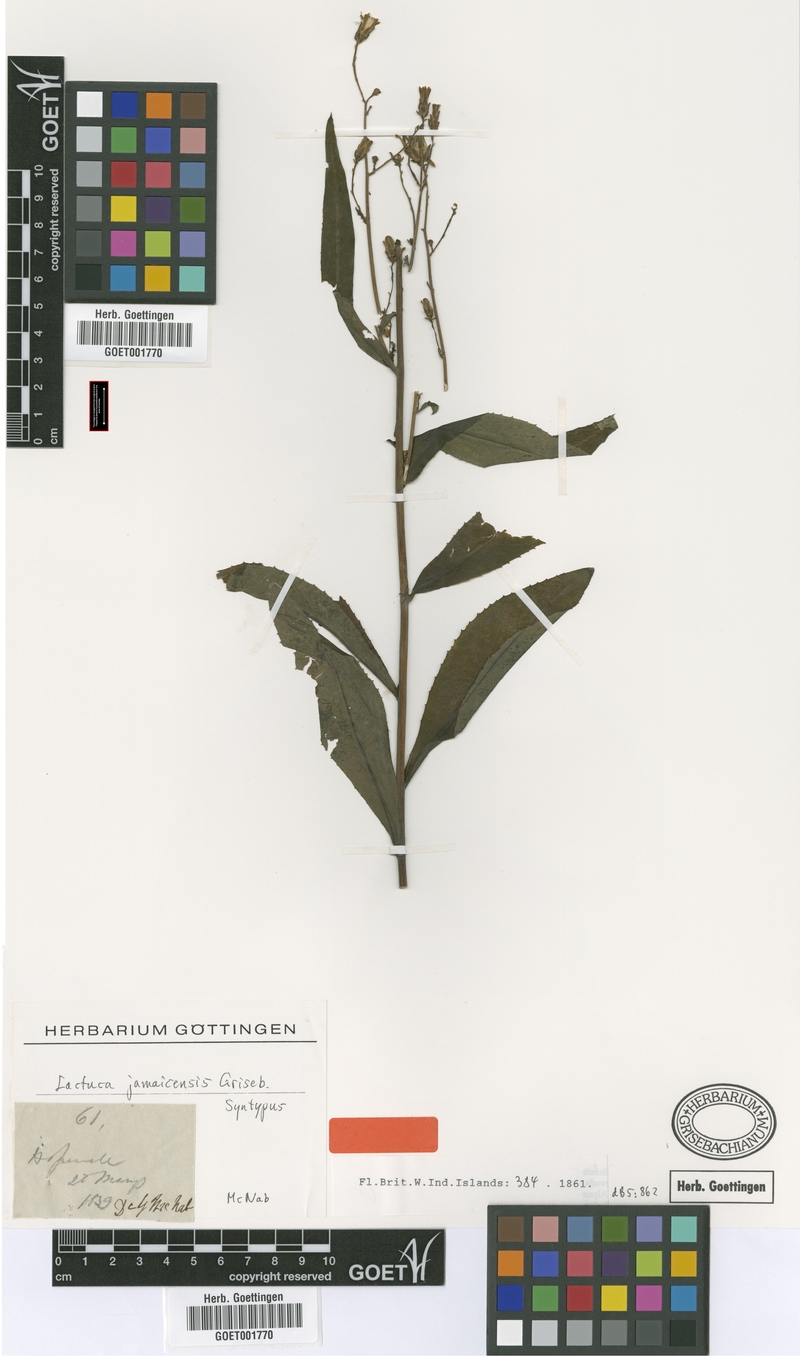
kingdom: Plantae
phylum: Tracheophyta
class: Magnoliopsida
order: Asterales
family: Asteraceae
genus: Lactuca
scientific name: Lactuca indica
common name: Wild lettuce
